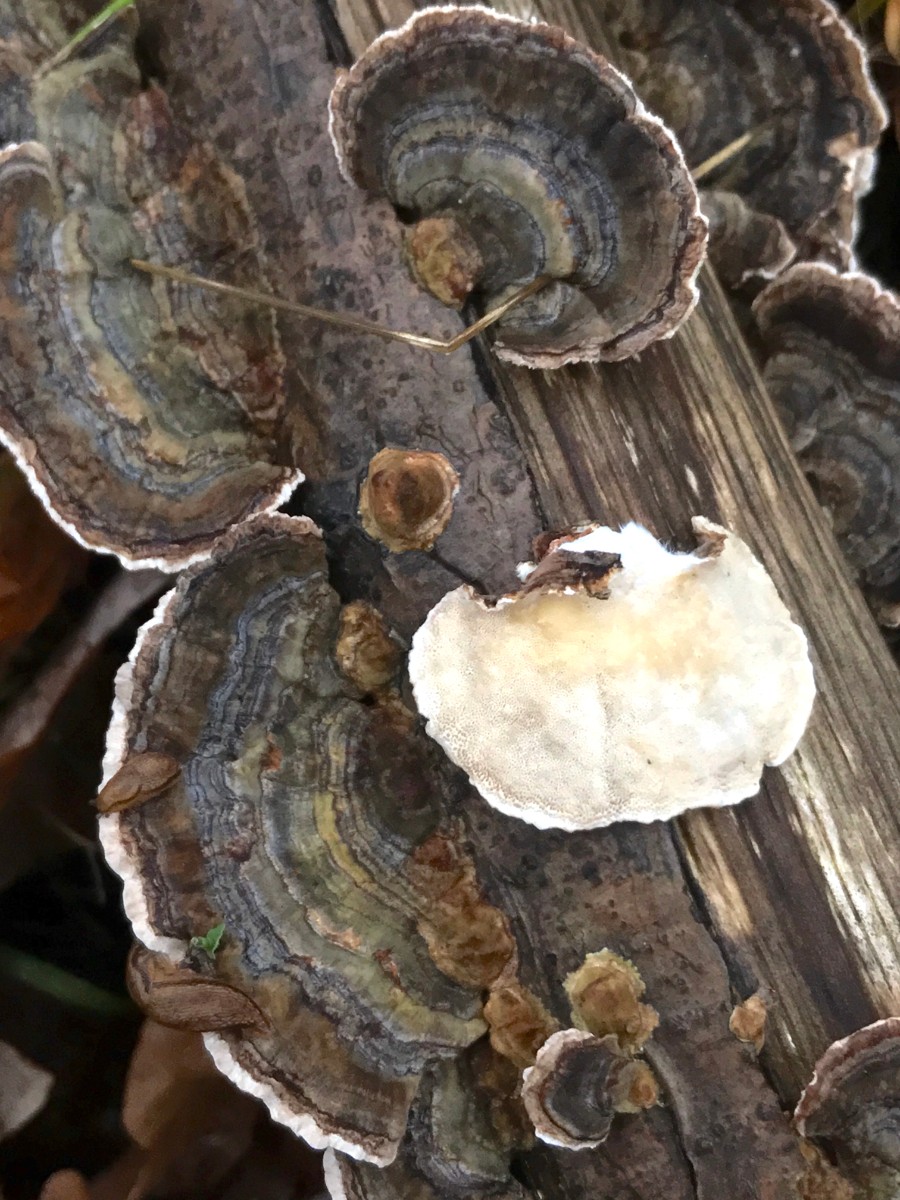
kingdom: Fungi
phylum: Basidiomycota
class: Agaricomycetes
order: Polyporales
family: Polyporaceae
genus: Trametes
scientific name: Trametes versicolor
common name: broget læderporesvamp
